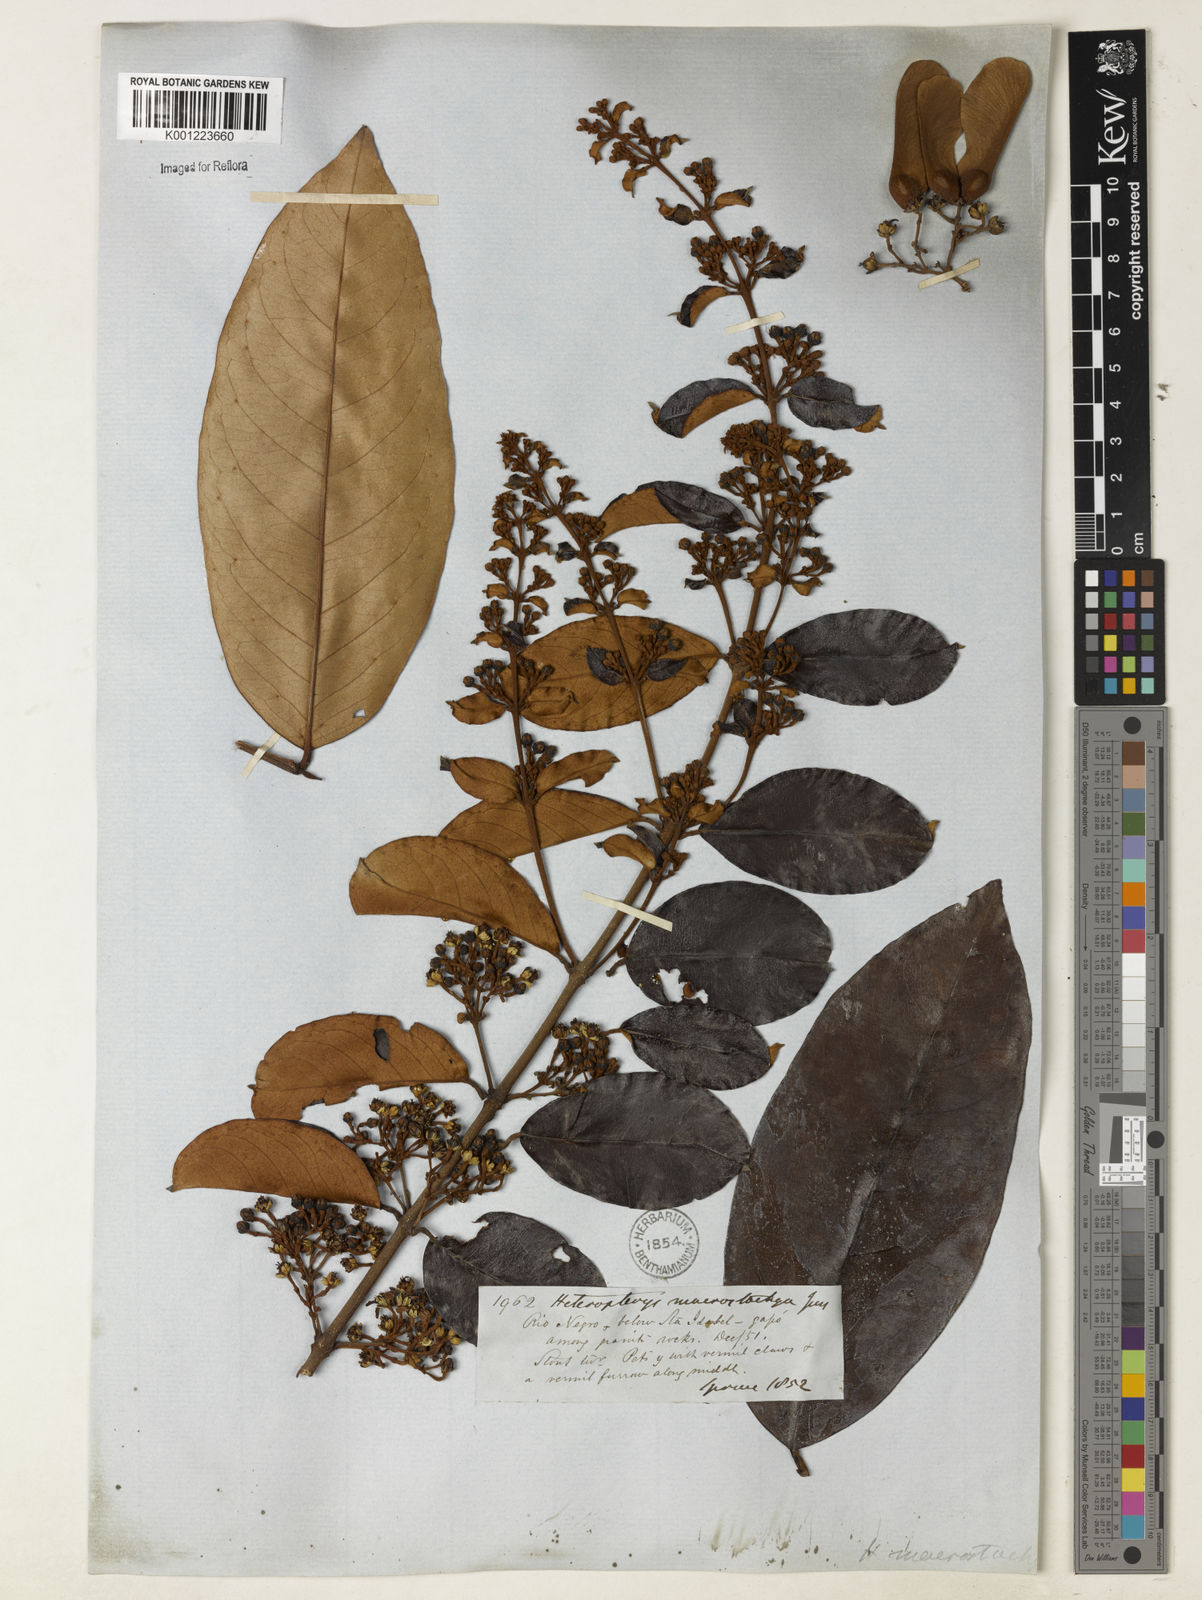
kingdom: Plantae
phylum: Tracheophyta
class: Magnoliopsida
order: Malpighiales
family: Malpighiaceae
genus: Heteropterys
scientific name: Heteropterys macrostachya
